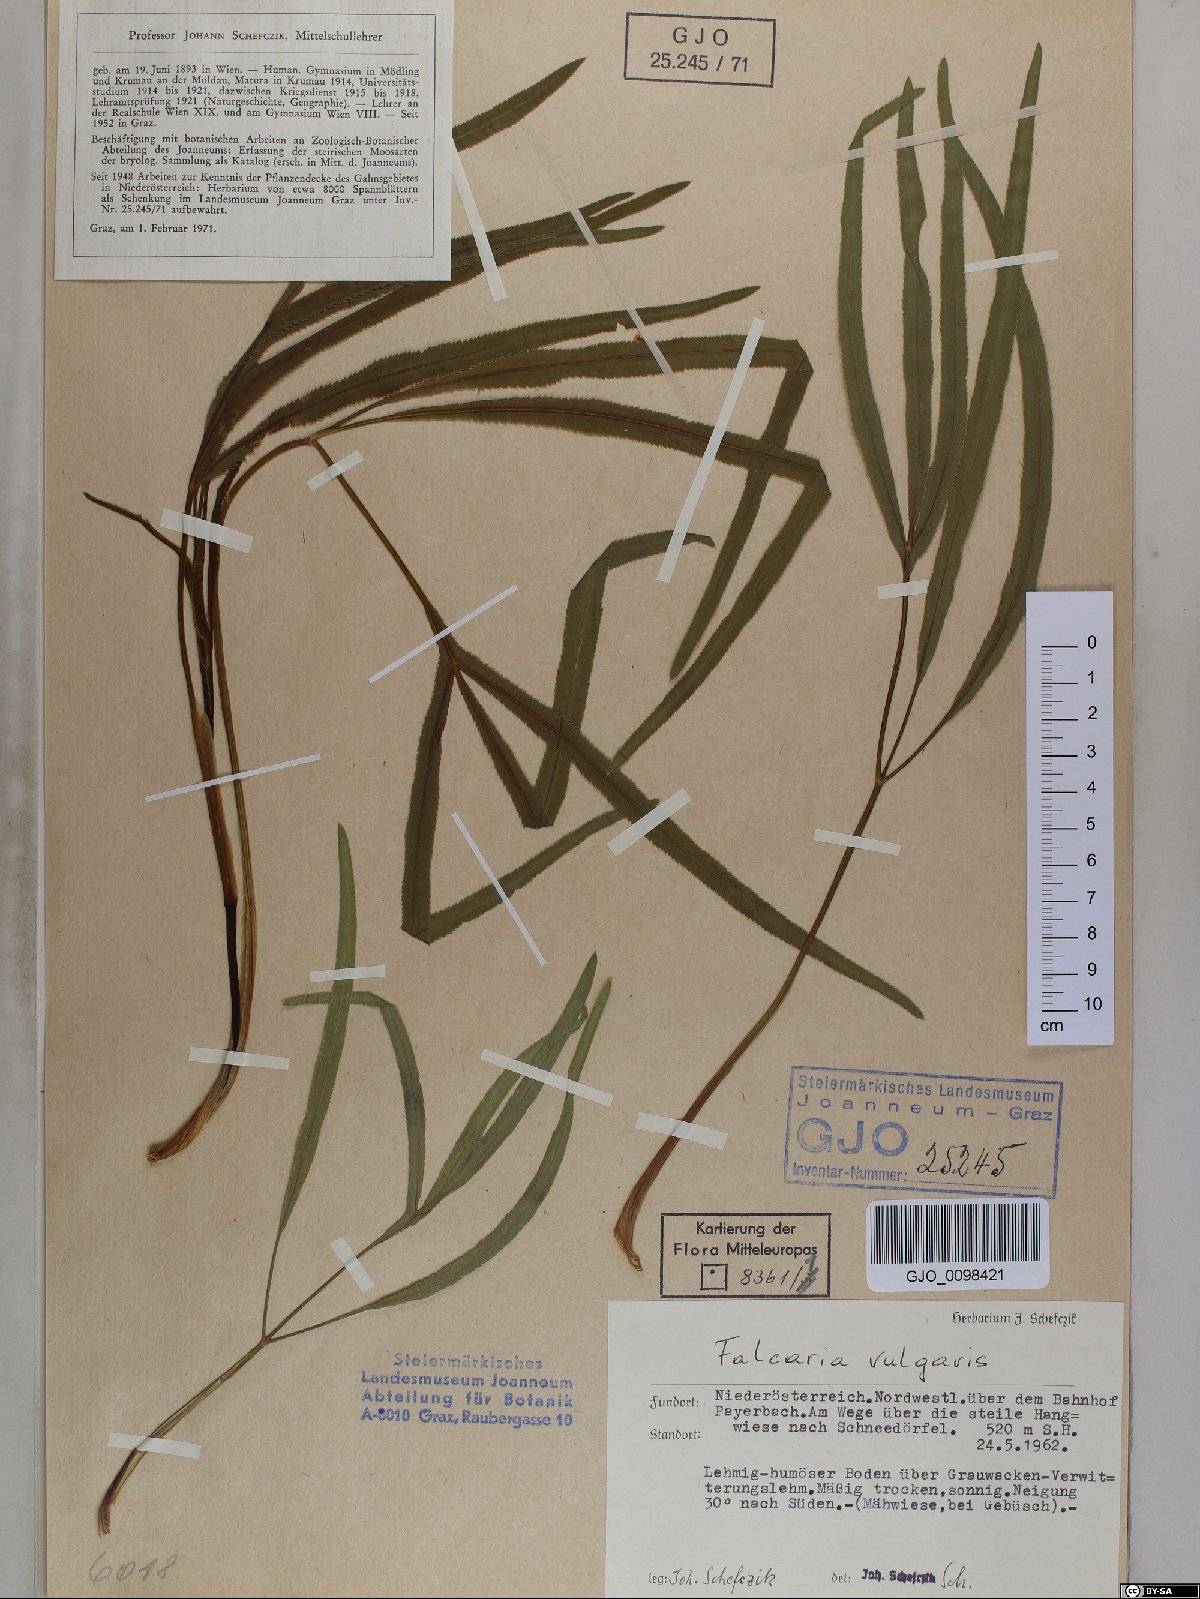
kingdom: Plantae
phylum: Tracheophyta
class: Magnoliopsida
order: Apiales
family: Apiaceae
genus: Falcaria
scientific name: Falcaria vulgaris
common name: Longleaf
